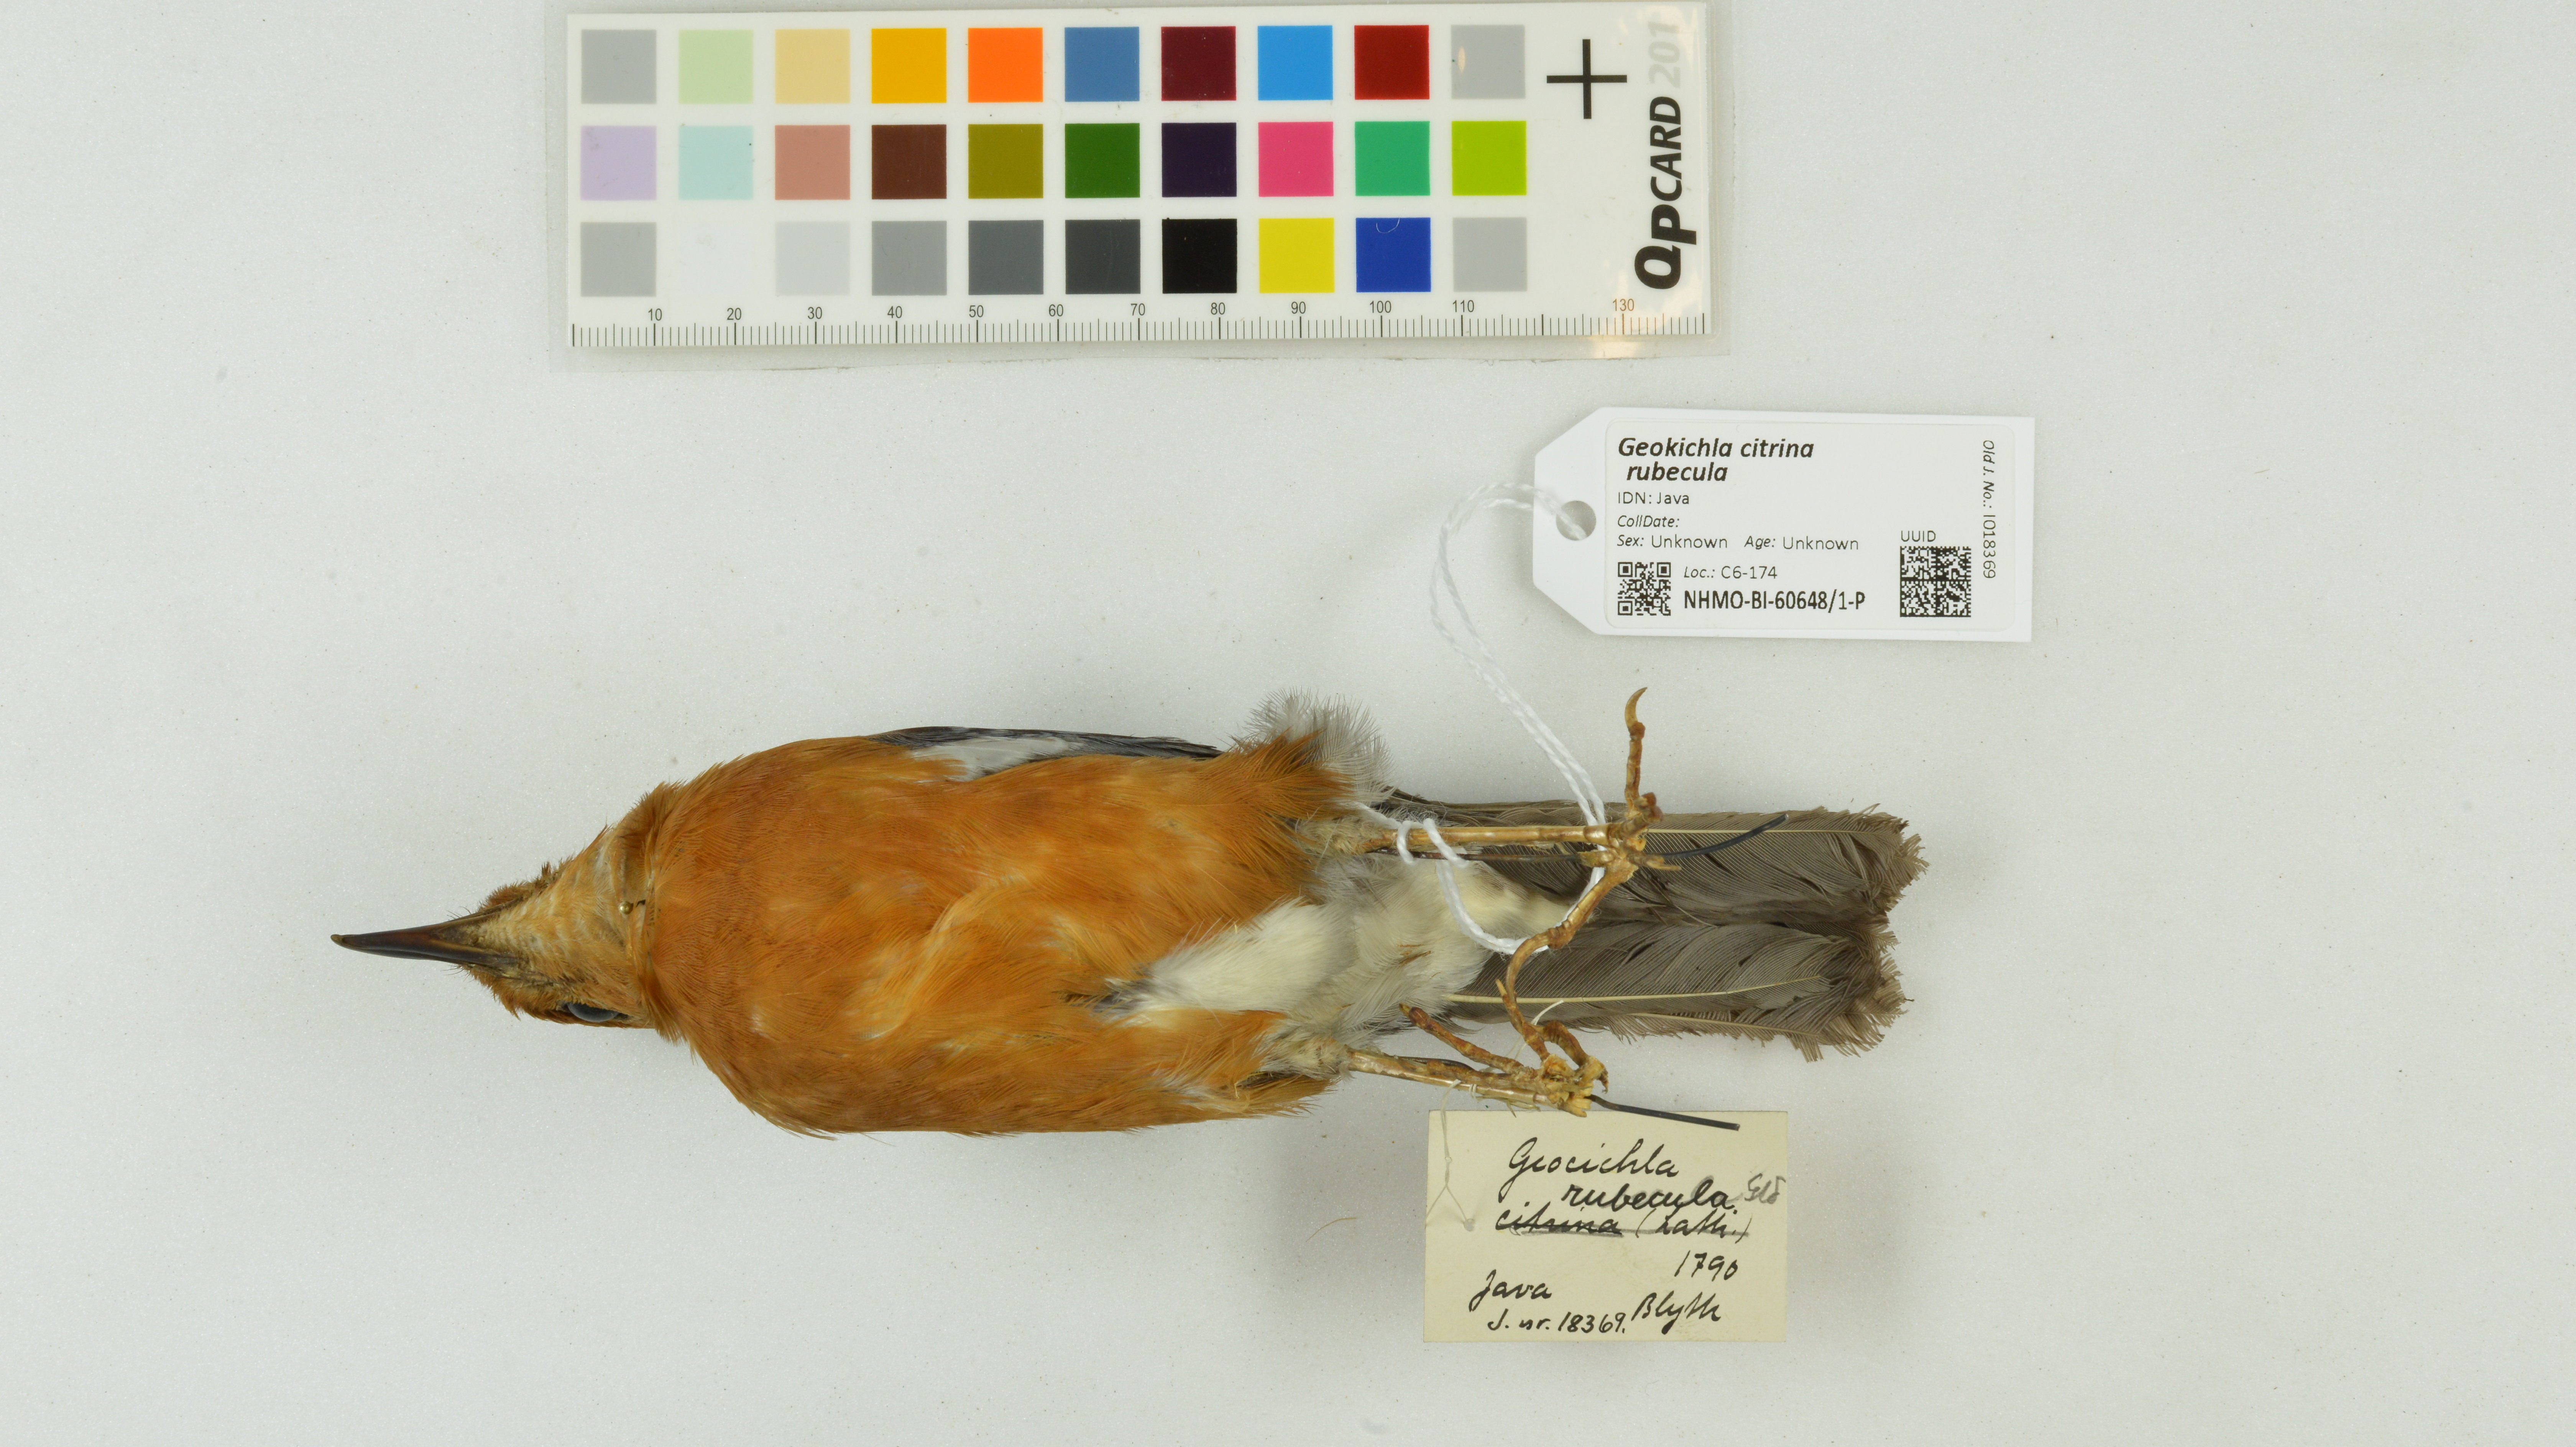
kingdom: Animalia
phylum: Chordata
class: Aves
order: Passeriformes
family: Turdidae
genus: Geokichla
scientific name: Geokichla citrina
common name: Orange-headed thrush
